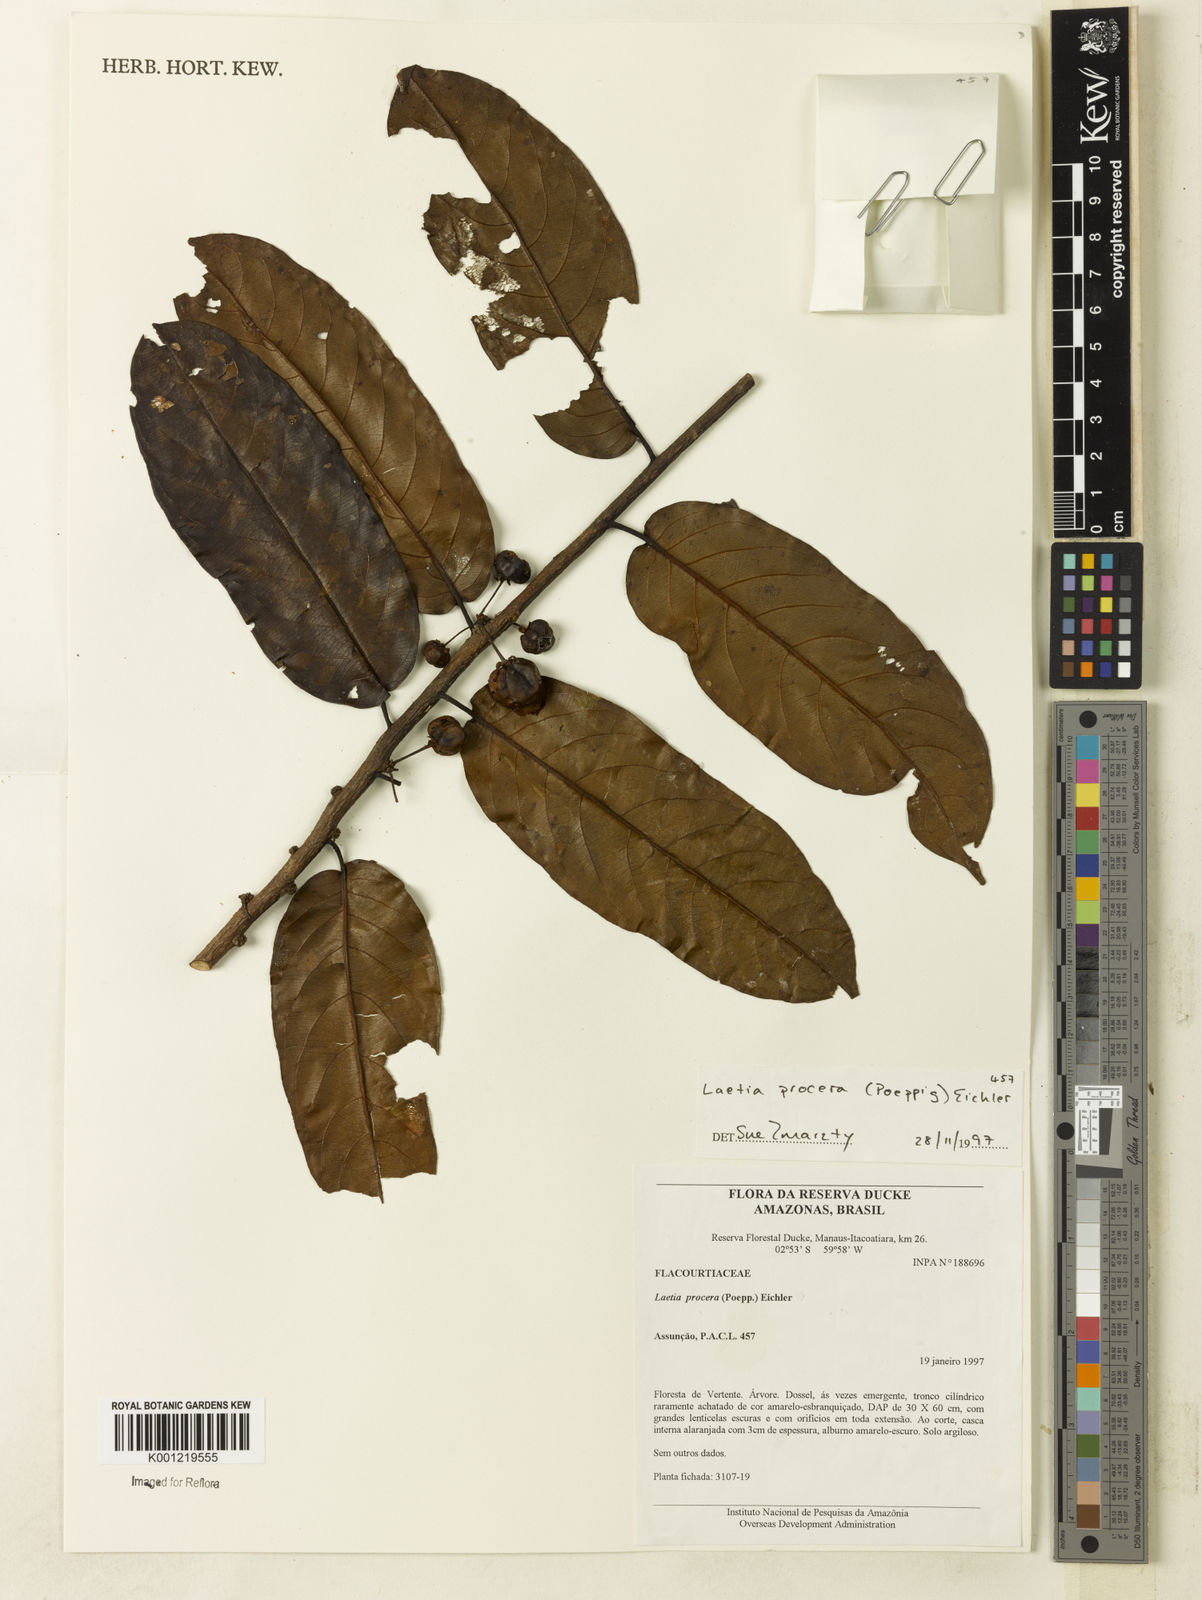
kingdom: Plantae
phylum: Tracheophyta
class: Magnoliopsida
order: Malpighiales
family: Salicaceae
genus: Casearia
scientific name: Casearia bicolor
